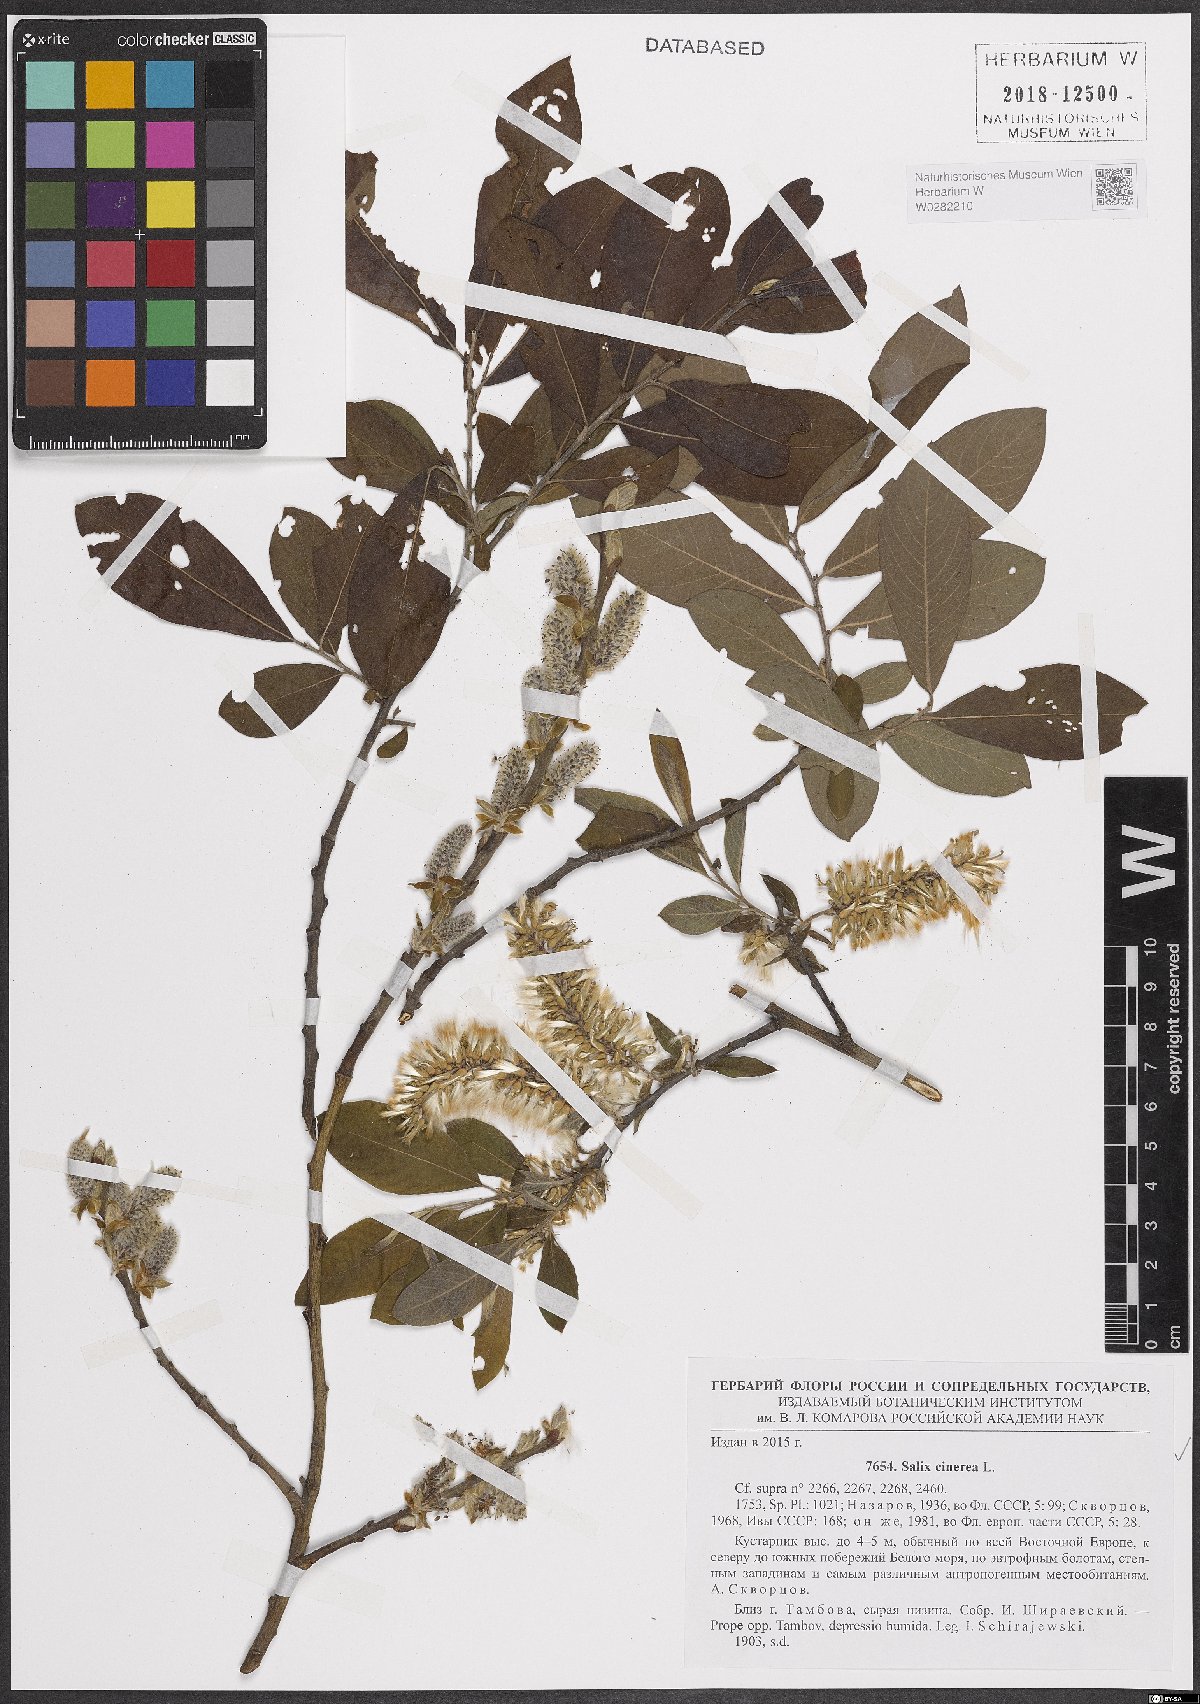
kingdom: Plantae
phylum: Tracheophyta
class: Magnoliopsida
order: Malpighiales
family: Salicaceae
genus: Salix
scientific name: Salix cinerea
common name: Common sallow
